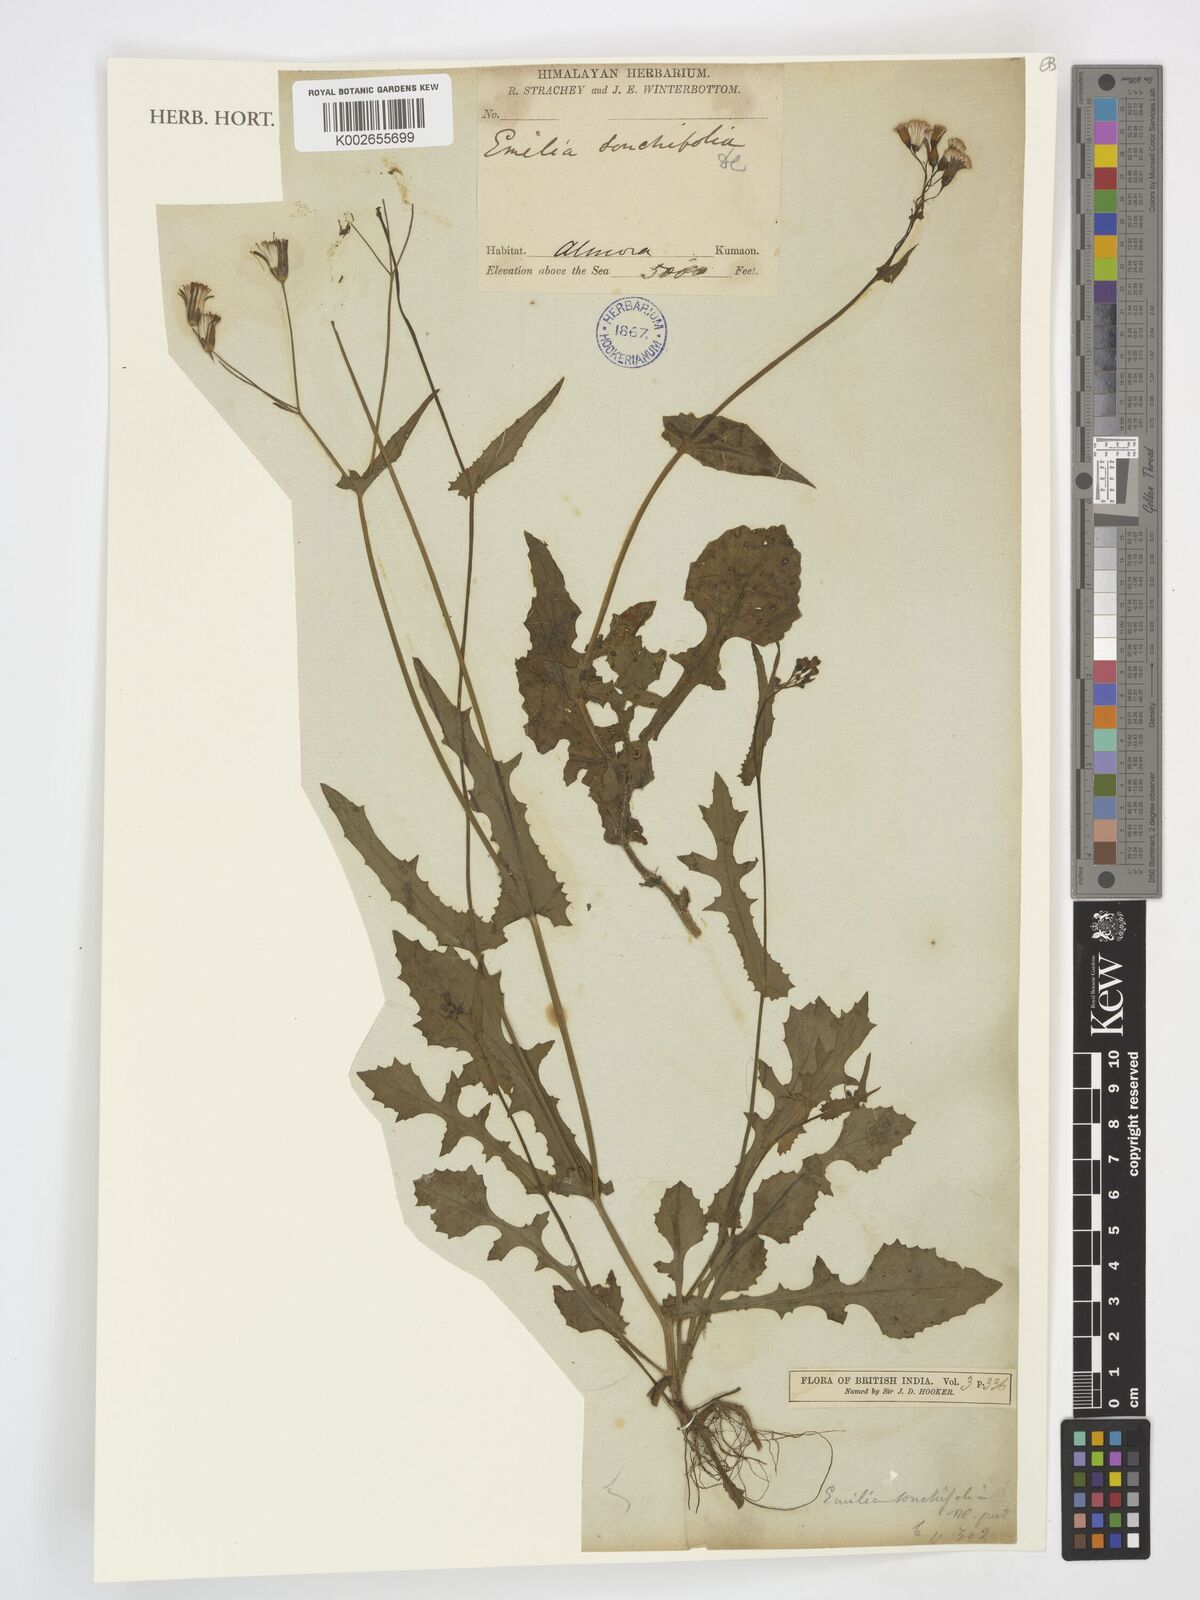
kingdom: Plantae
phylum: Tracheophyta
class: Magnoliopsida
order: Asterales
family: Asteraceae
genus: Emilia
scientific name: Emilia sonchifolia
